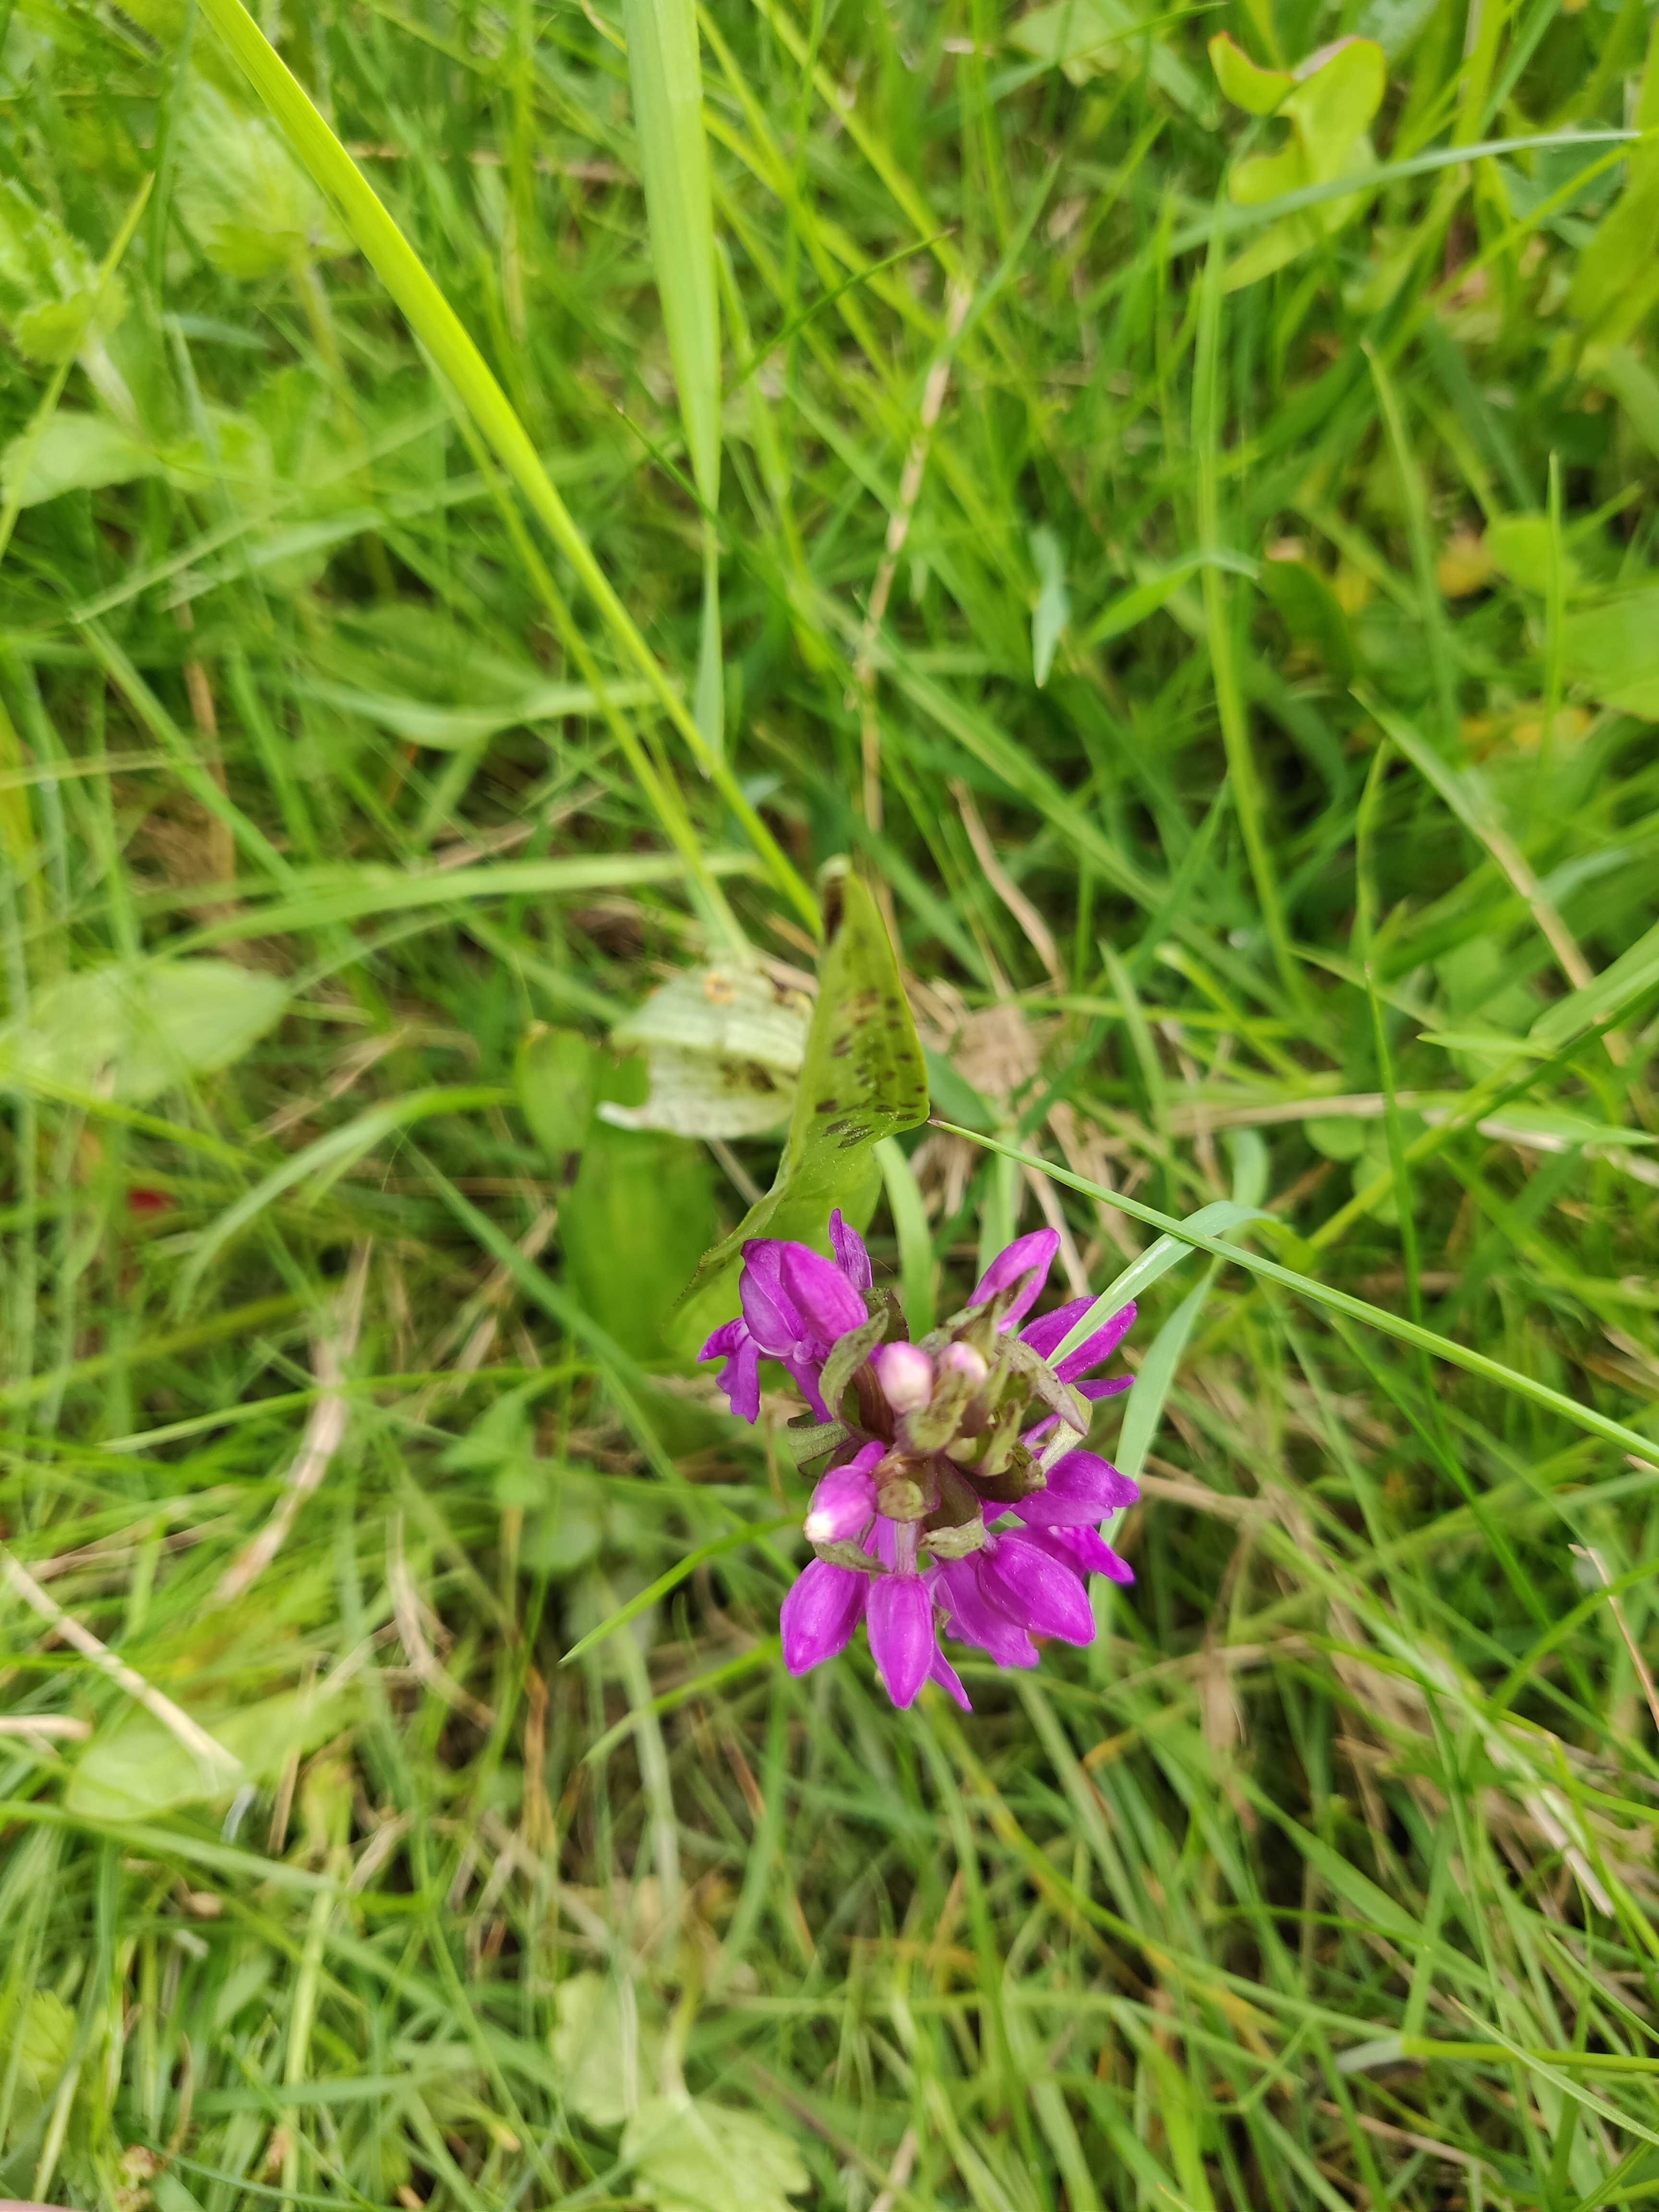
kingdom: Fungi
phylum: Basidiomycota
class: Pucciniomycetes
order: Pucciniales
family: Pucciniaceae
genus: Puccinia
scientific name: Puccinia sessilis
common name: Arum rust
